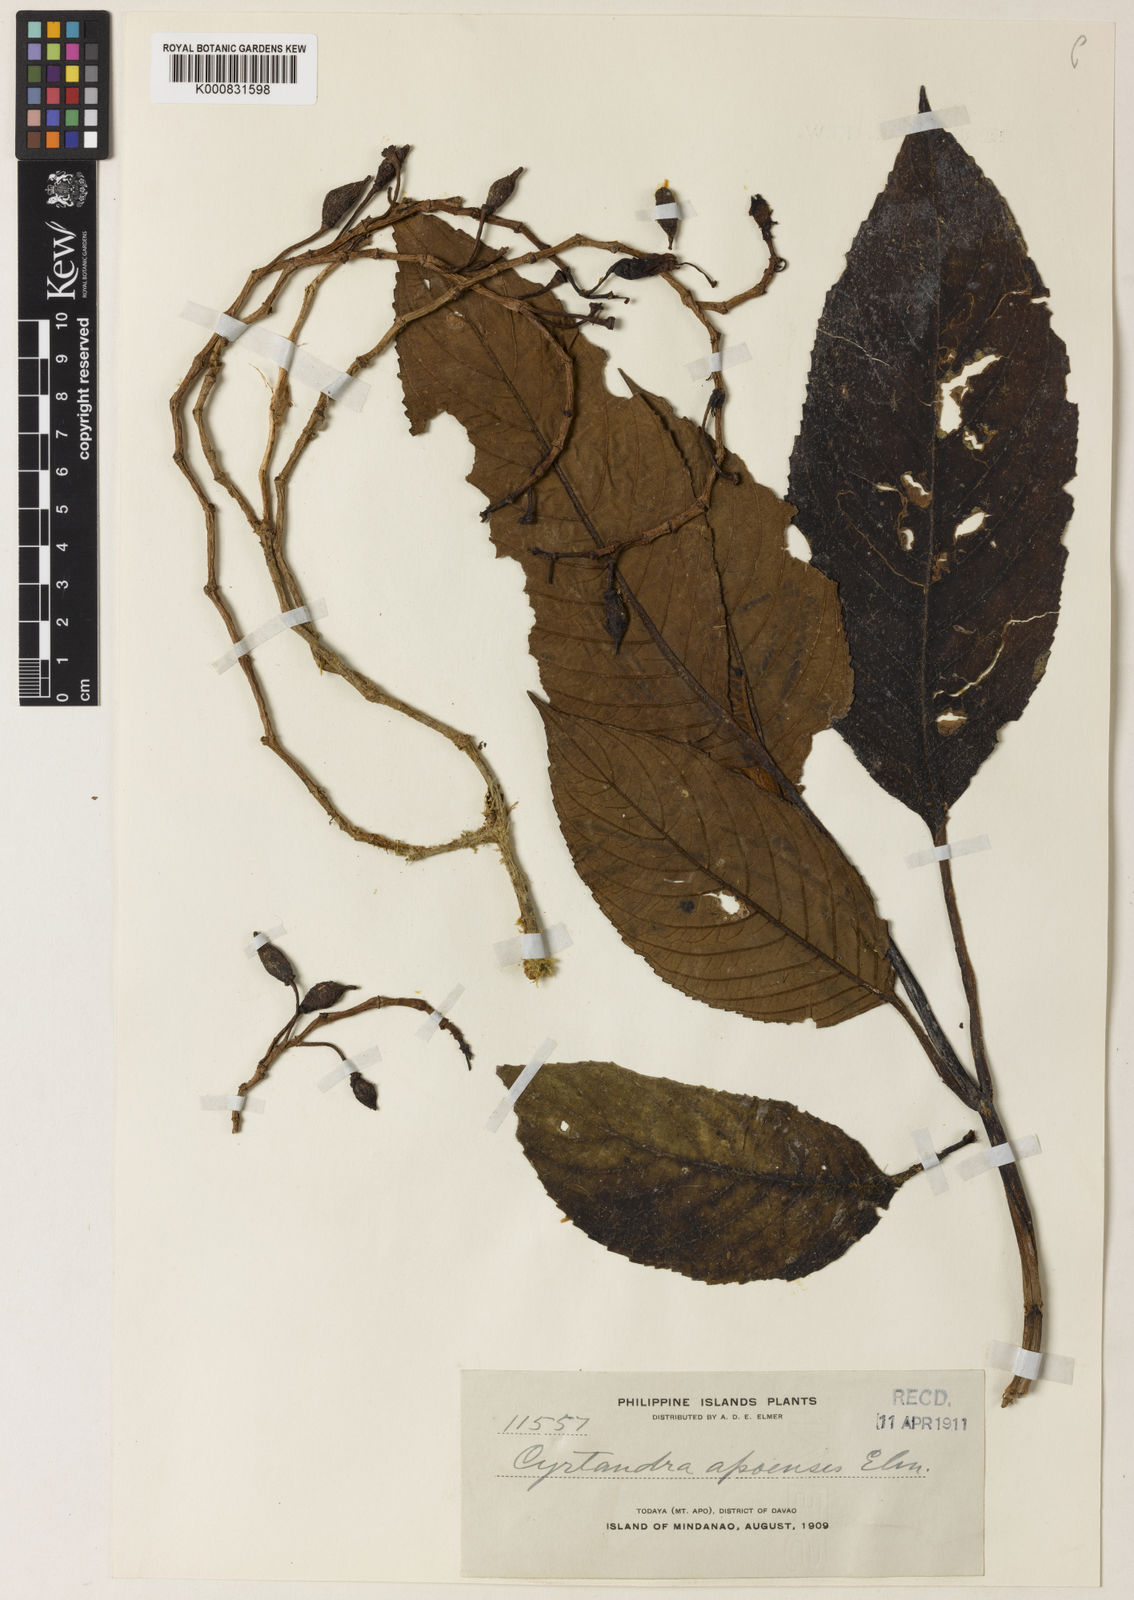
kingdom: Plantae
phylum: Tracheophyta
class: Magnoliopsida
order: Lamiales
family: Gesneriaceae
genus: Cyrtandra
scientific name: Cyrtandra apoensis
